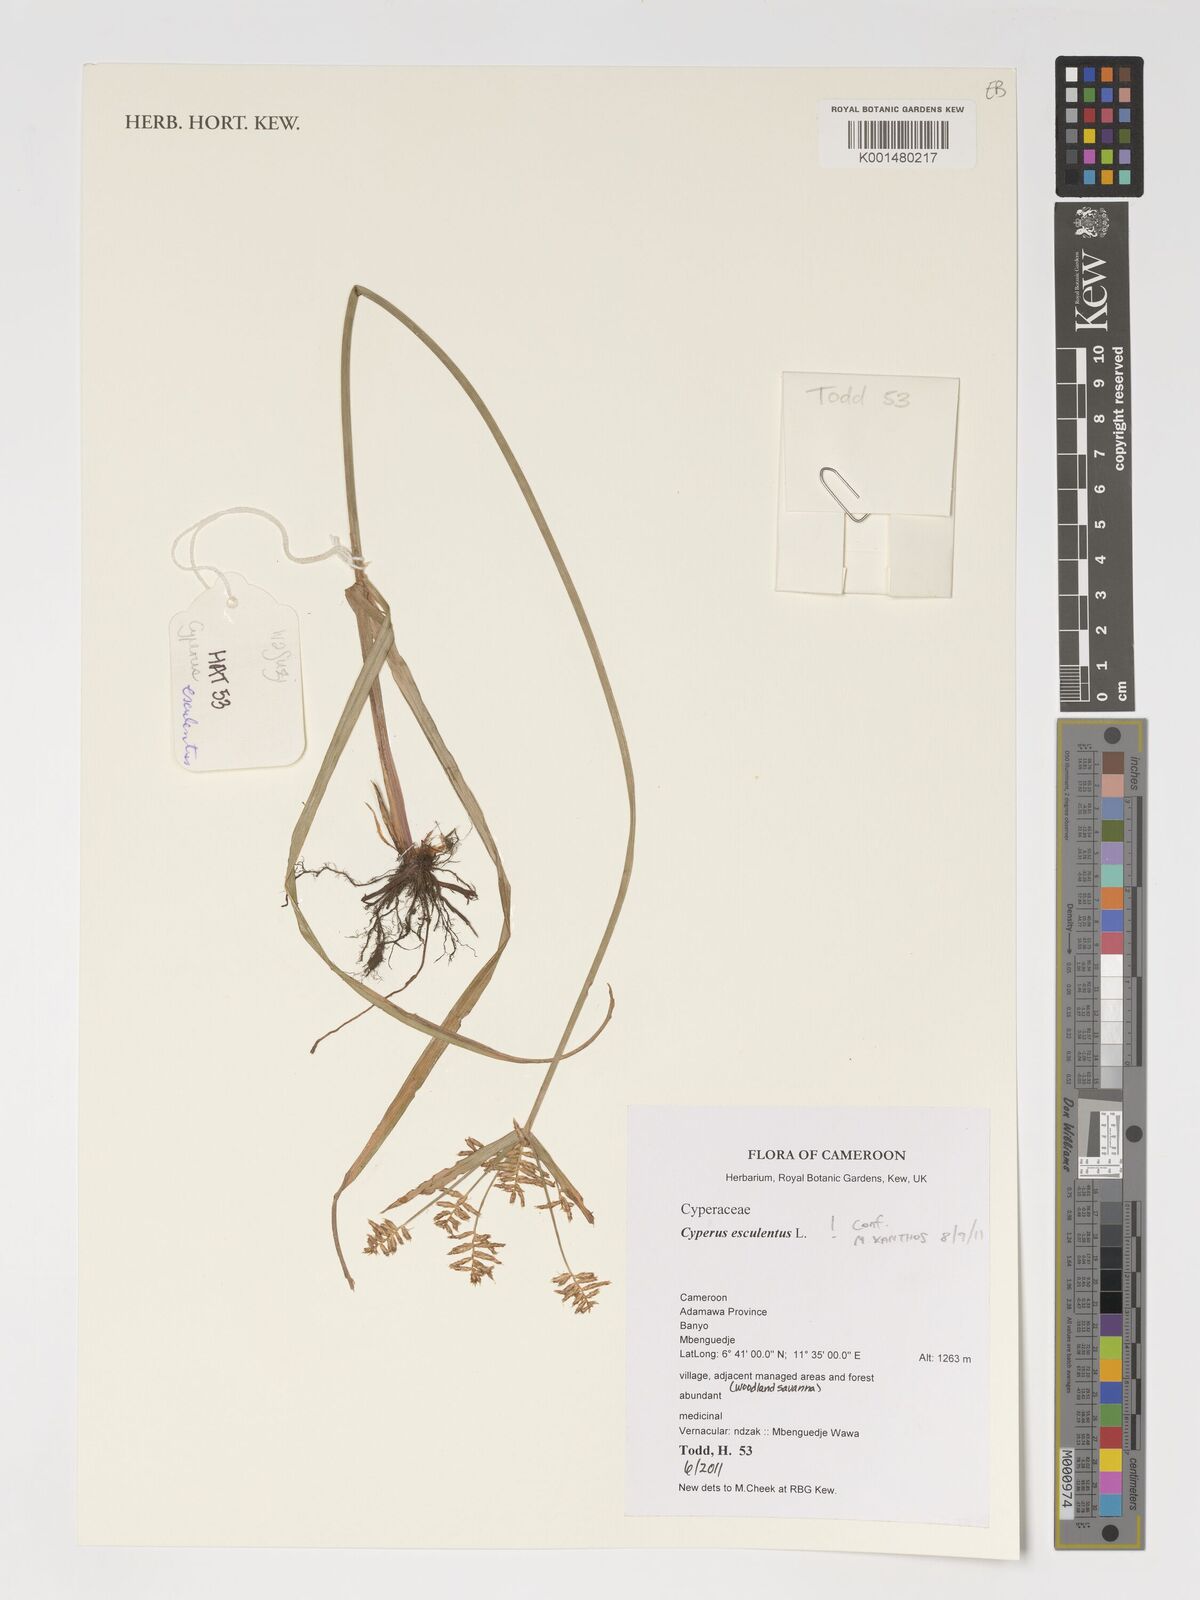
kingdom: Plantae
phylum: Tracheophyta
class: Liliopsida
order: Poales
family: Cyperaceae
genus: Cyperus
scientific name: Cyperus esculentus
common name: Yellow nutsedge
